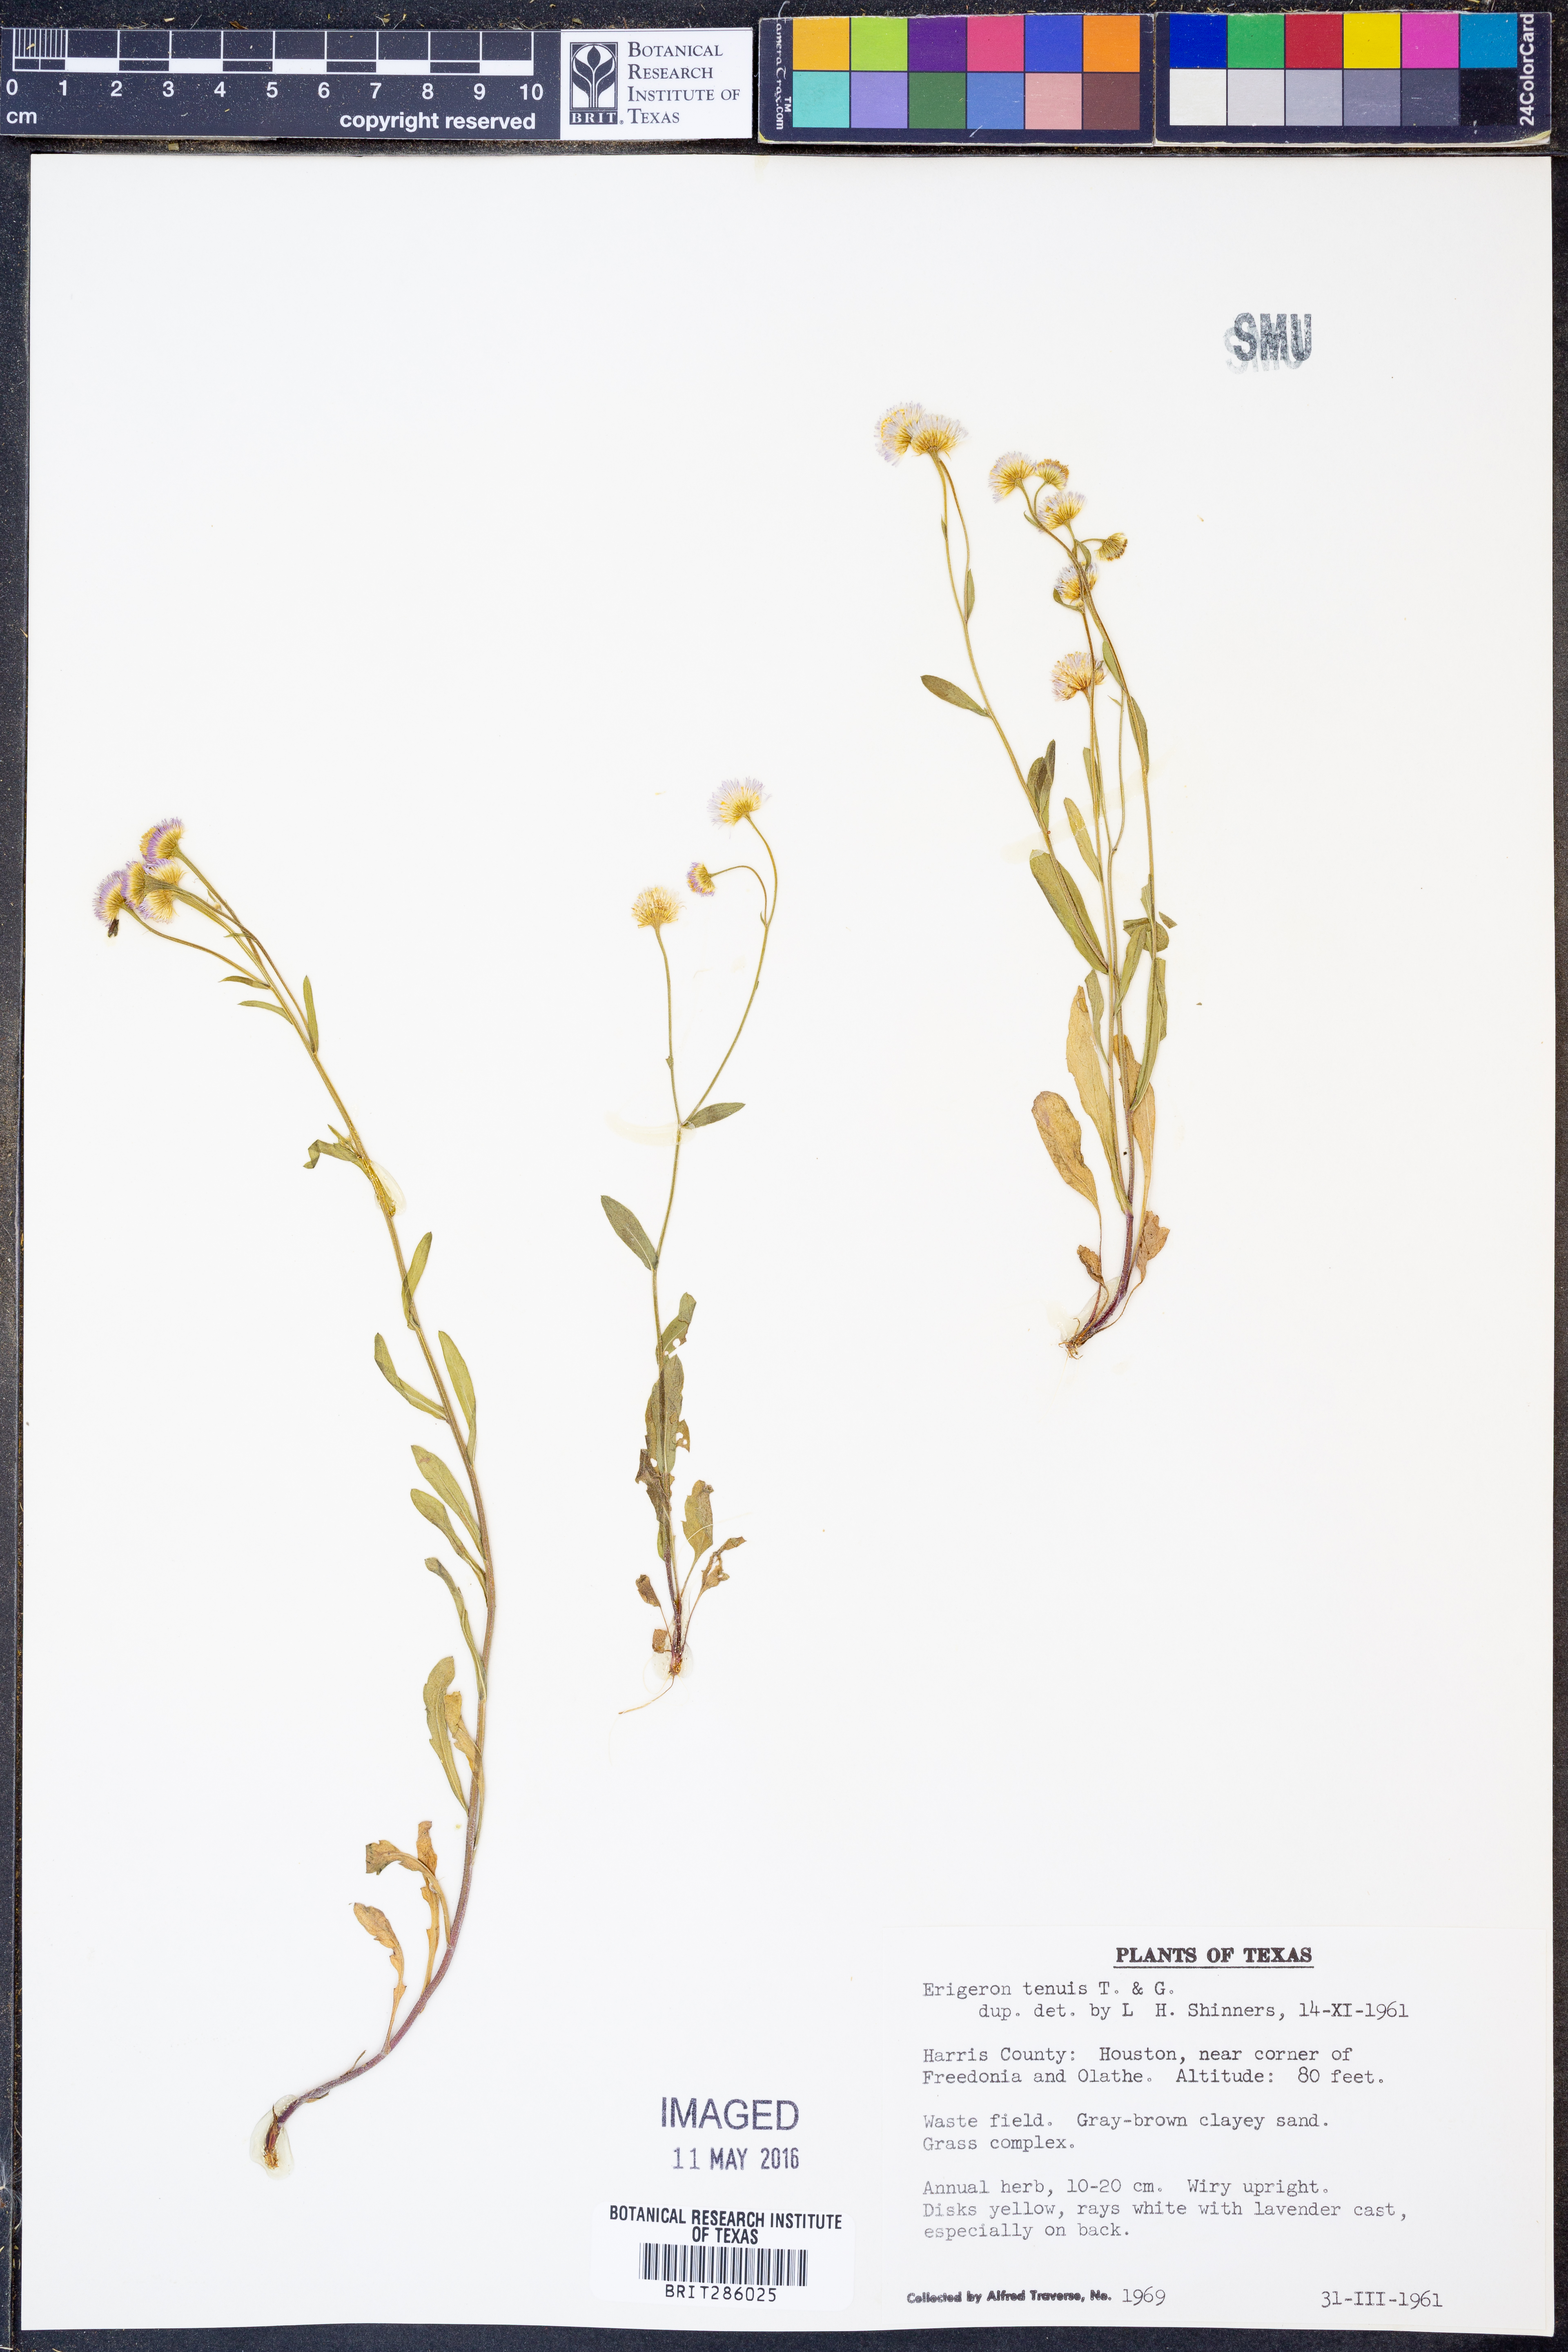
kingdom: Plantae
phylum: Tracheophyta
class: Magnoliopsida
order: Asterales
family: Asteraceae
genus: Erigeron
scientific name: Erigeron tenuis
